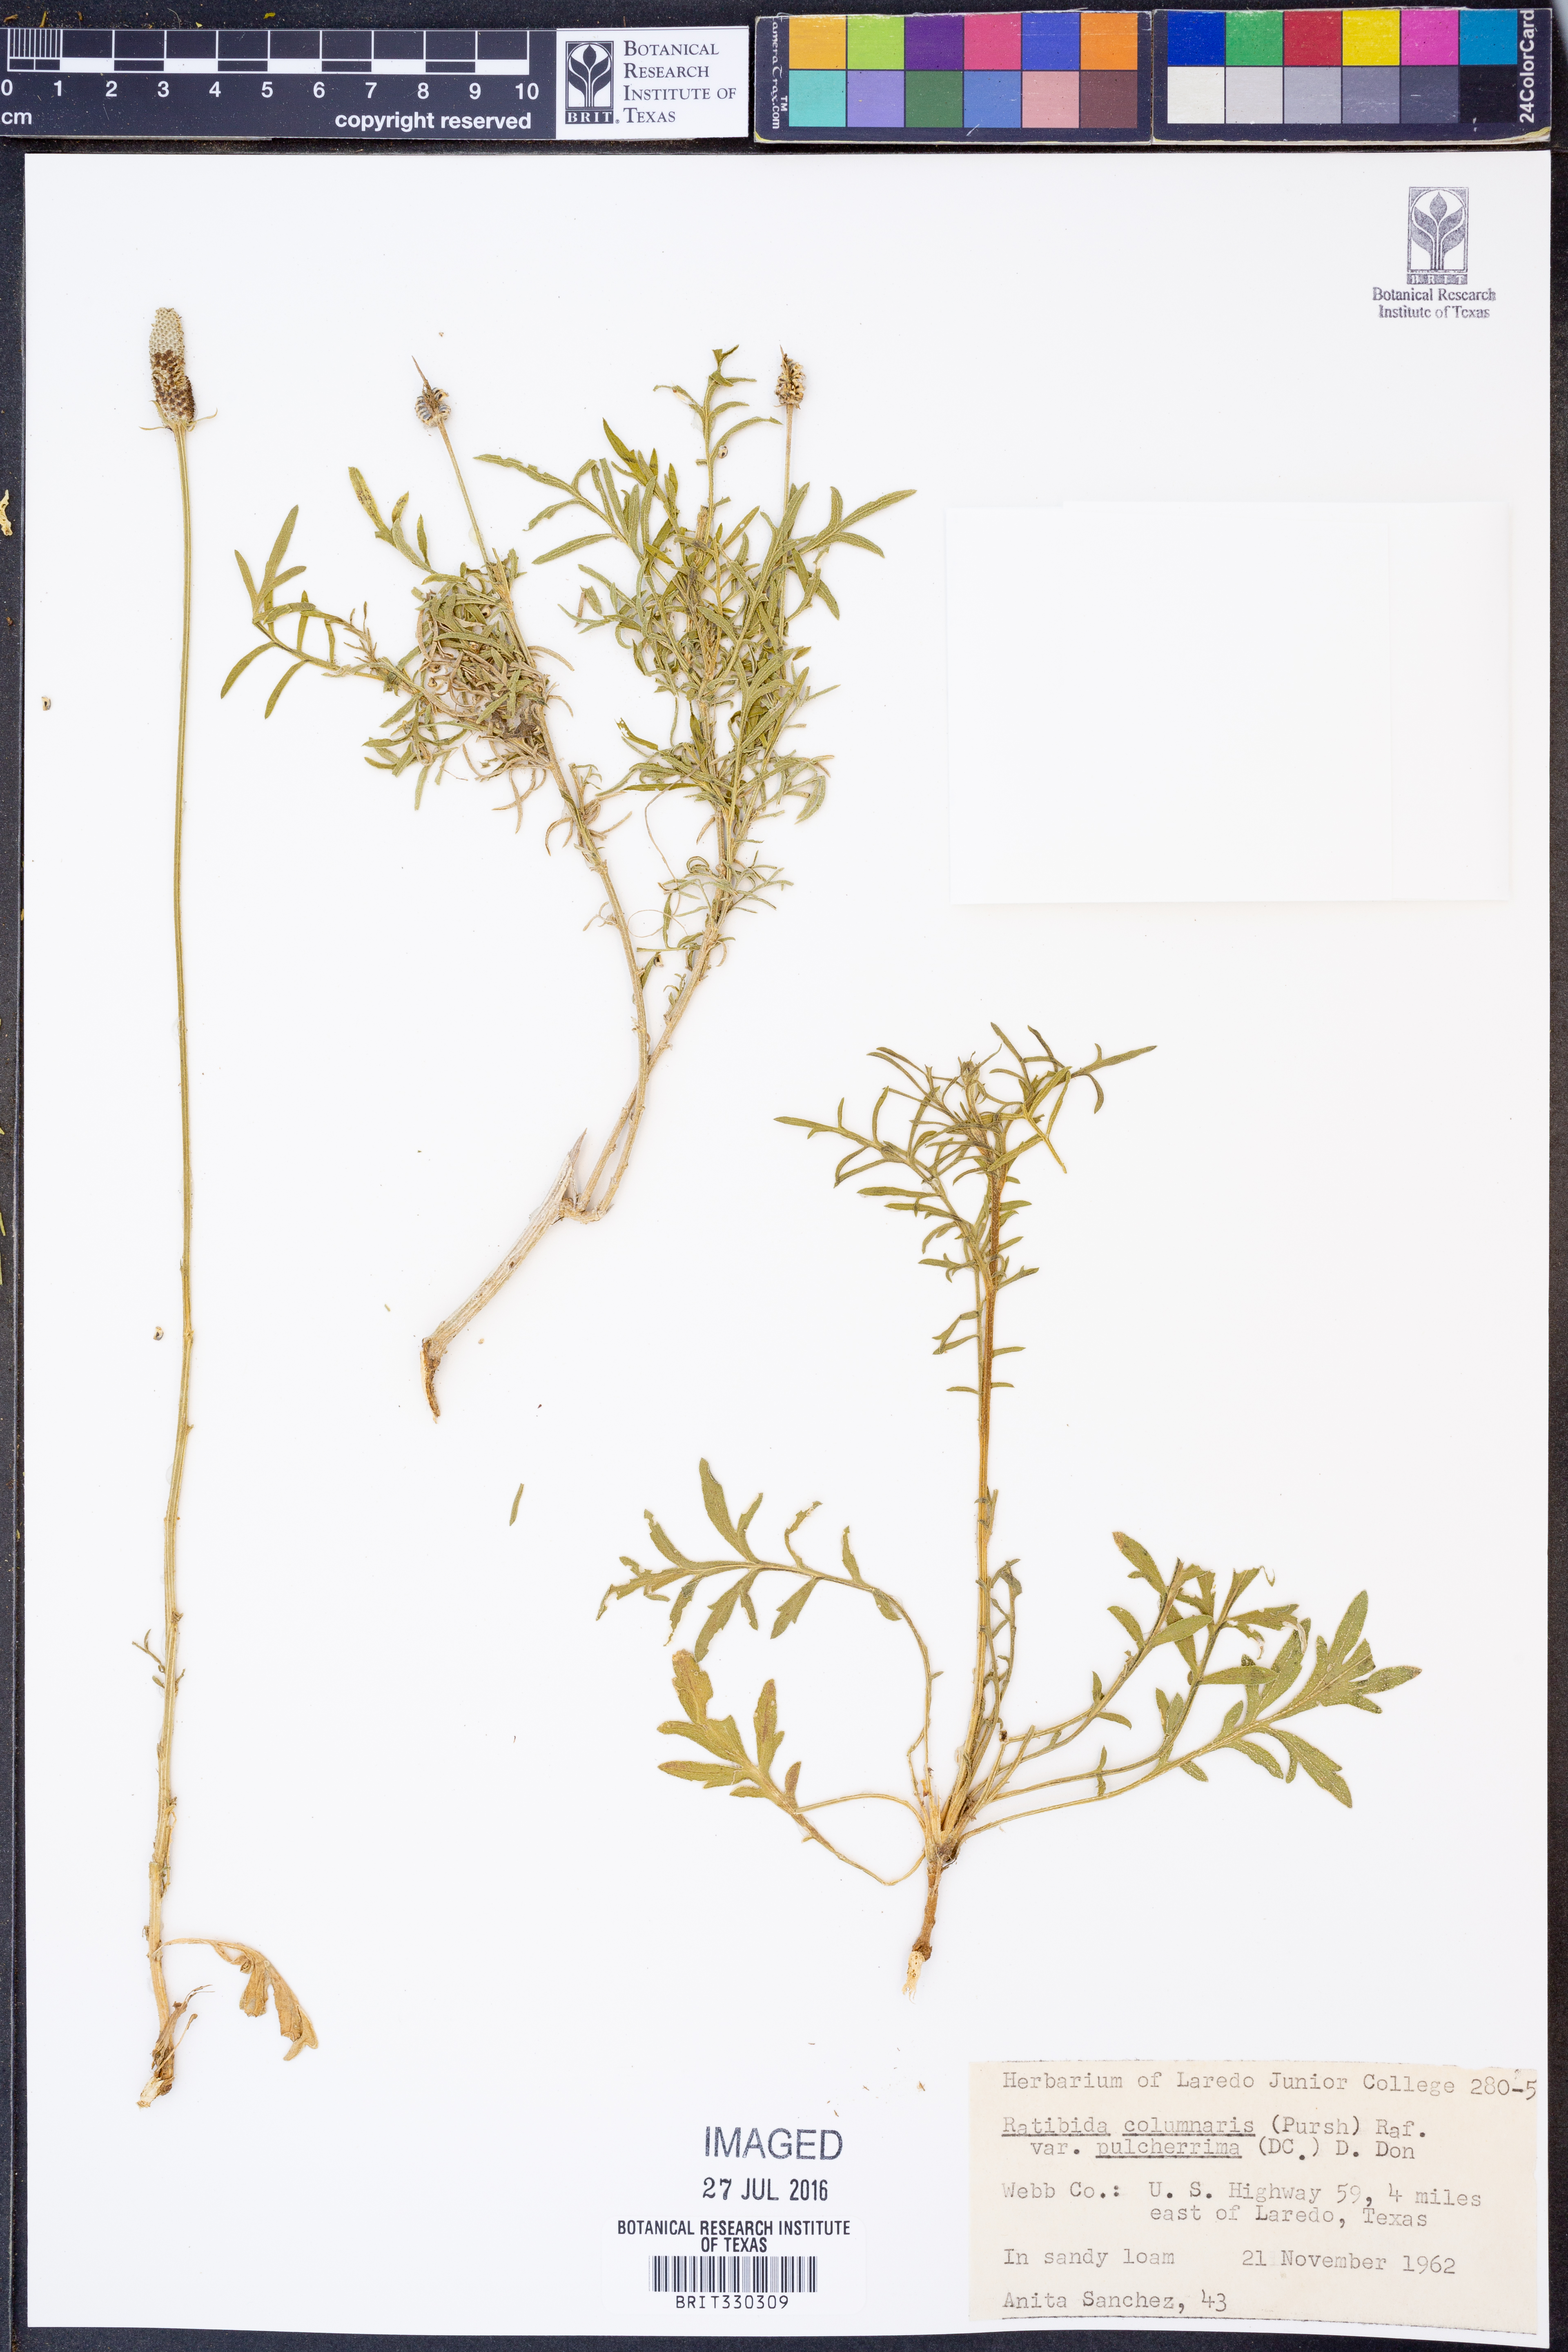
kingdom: Plantae
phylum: Tracheophyta
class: Magnoliopsida
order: Asterales
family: Asteraceae
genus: Ratibida
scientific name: Ratibida columnifera
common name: Prairie coneflower
